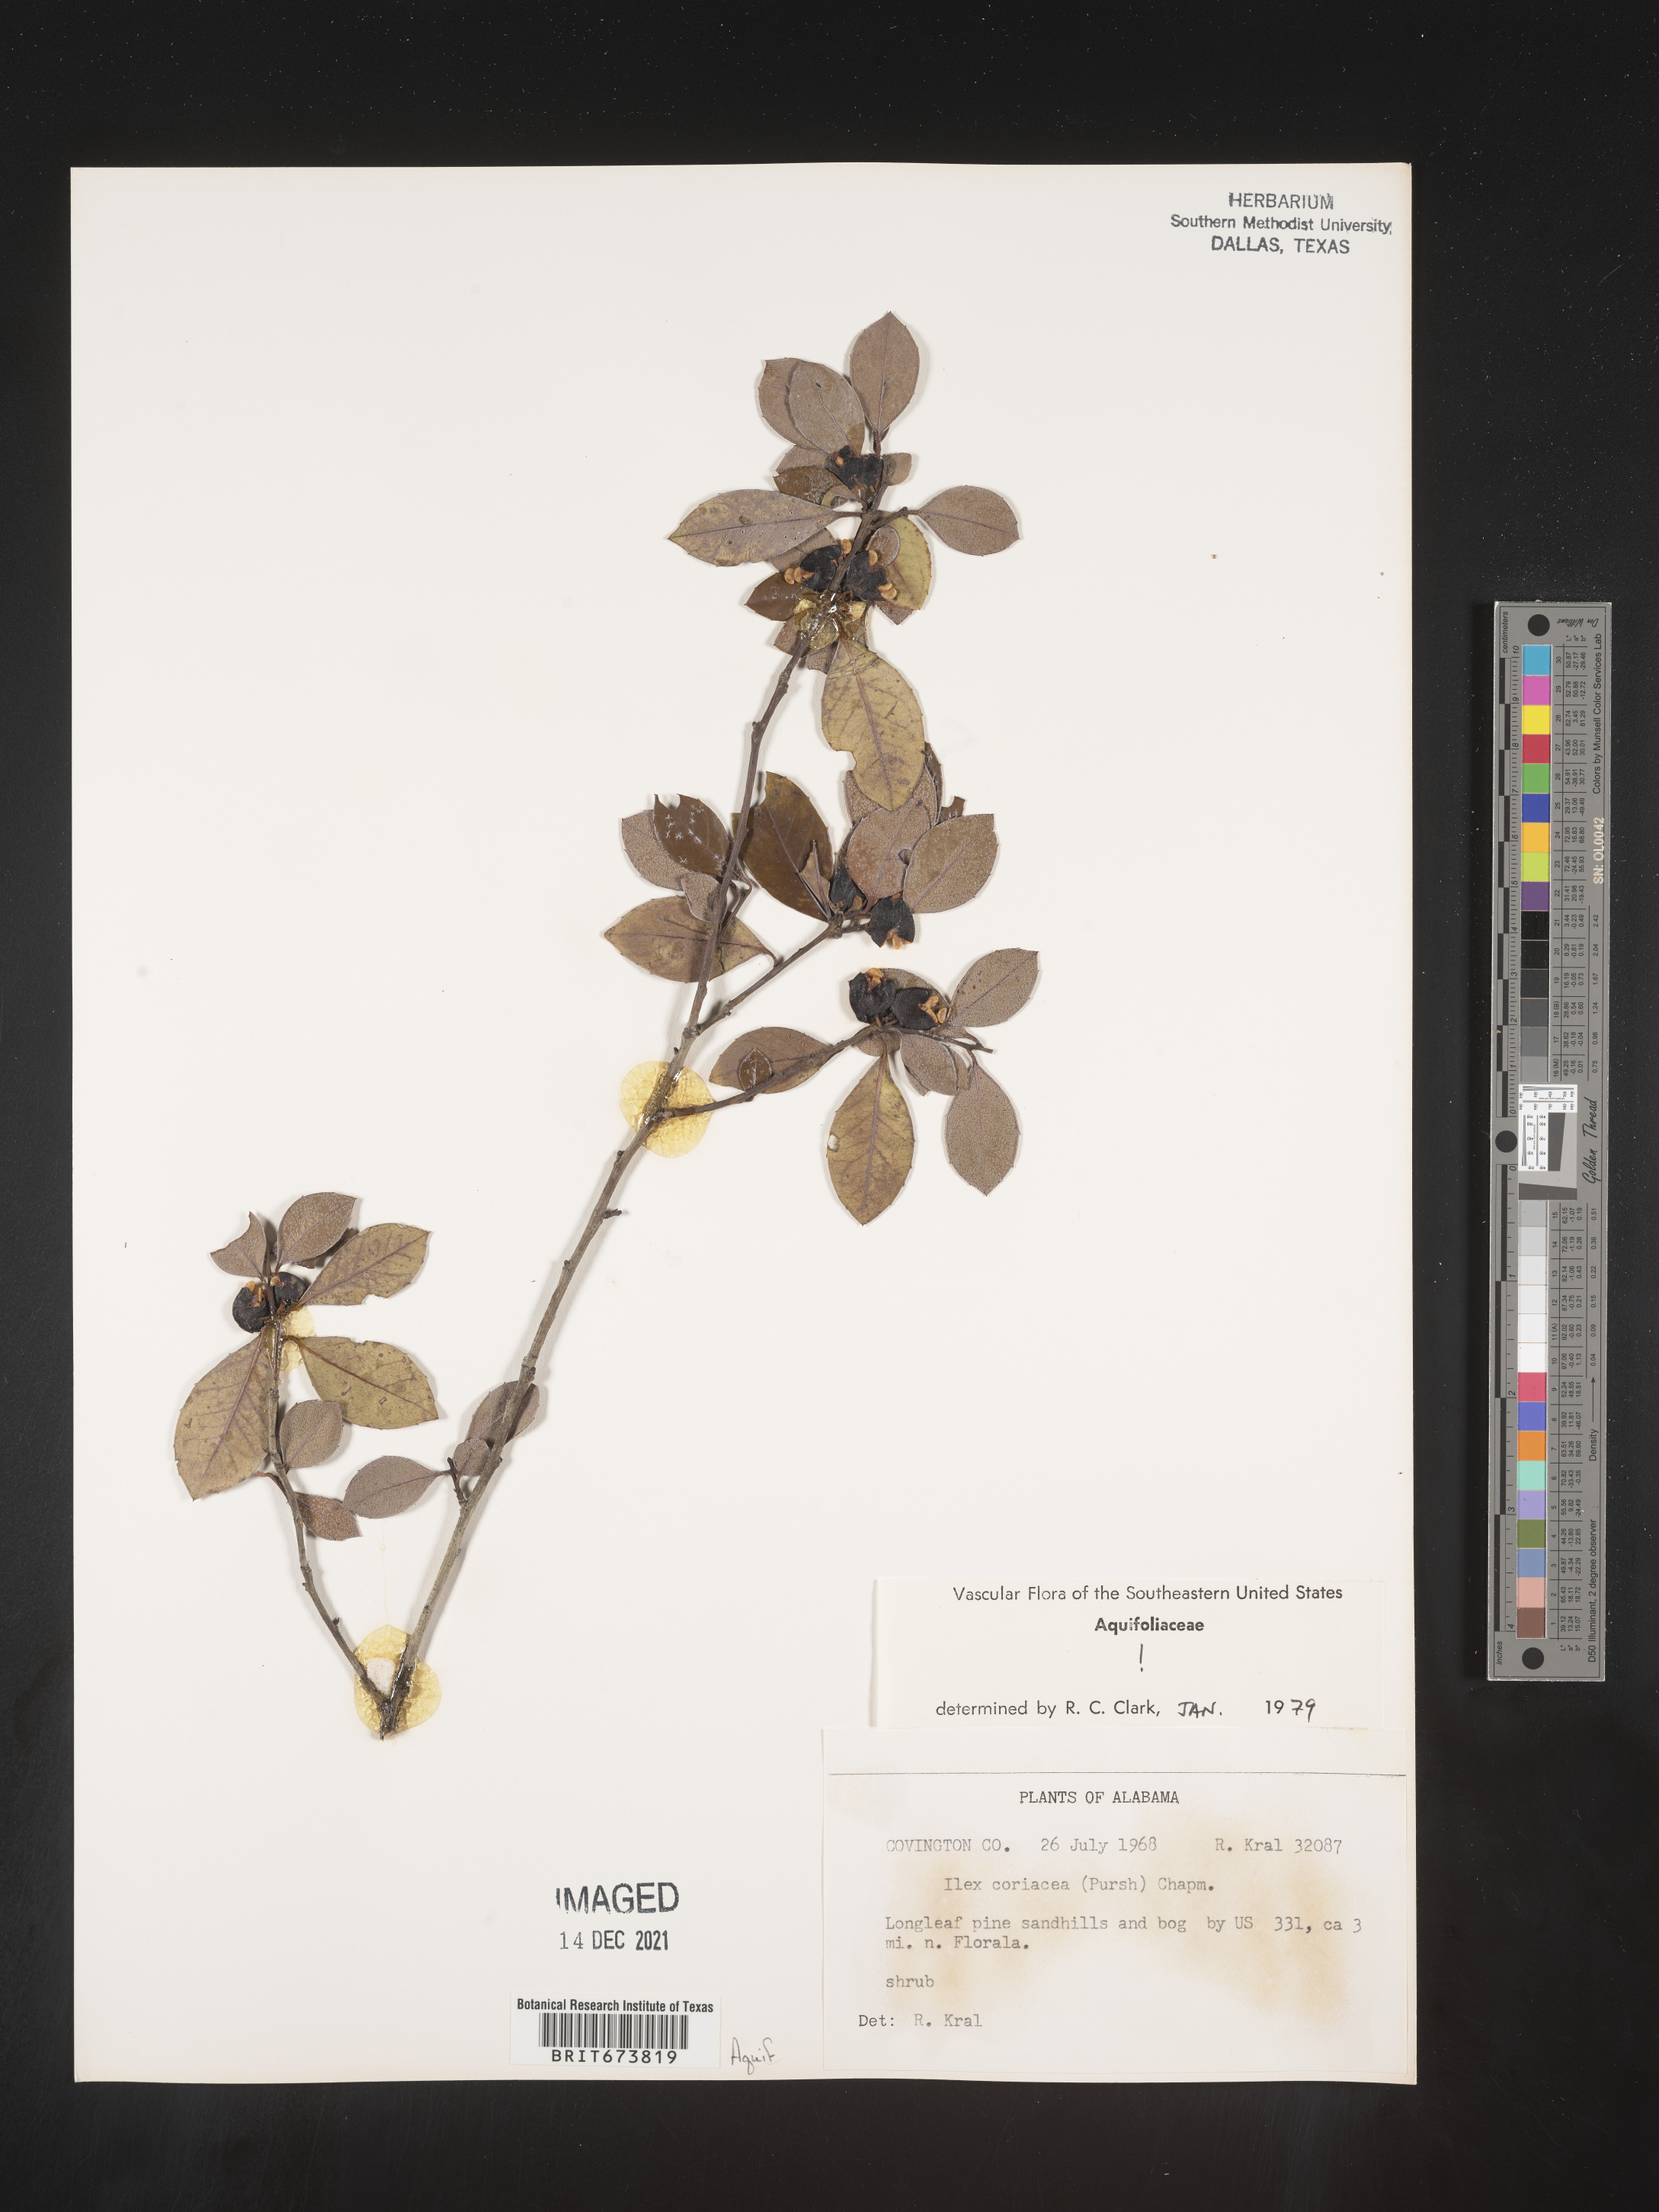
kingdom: Plantae
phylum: Tracheophyta
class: Magnoliopsida
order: Aquifoliales
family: Aquifoliaceae
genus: Ilex
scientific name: Ilex coriacea
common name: Sweet gallberry
